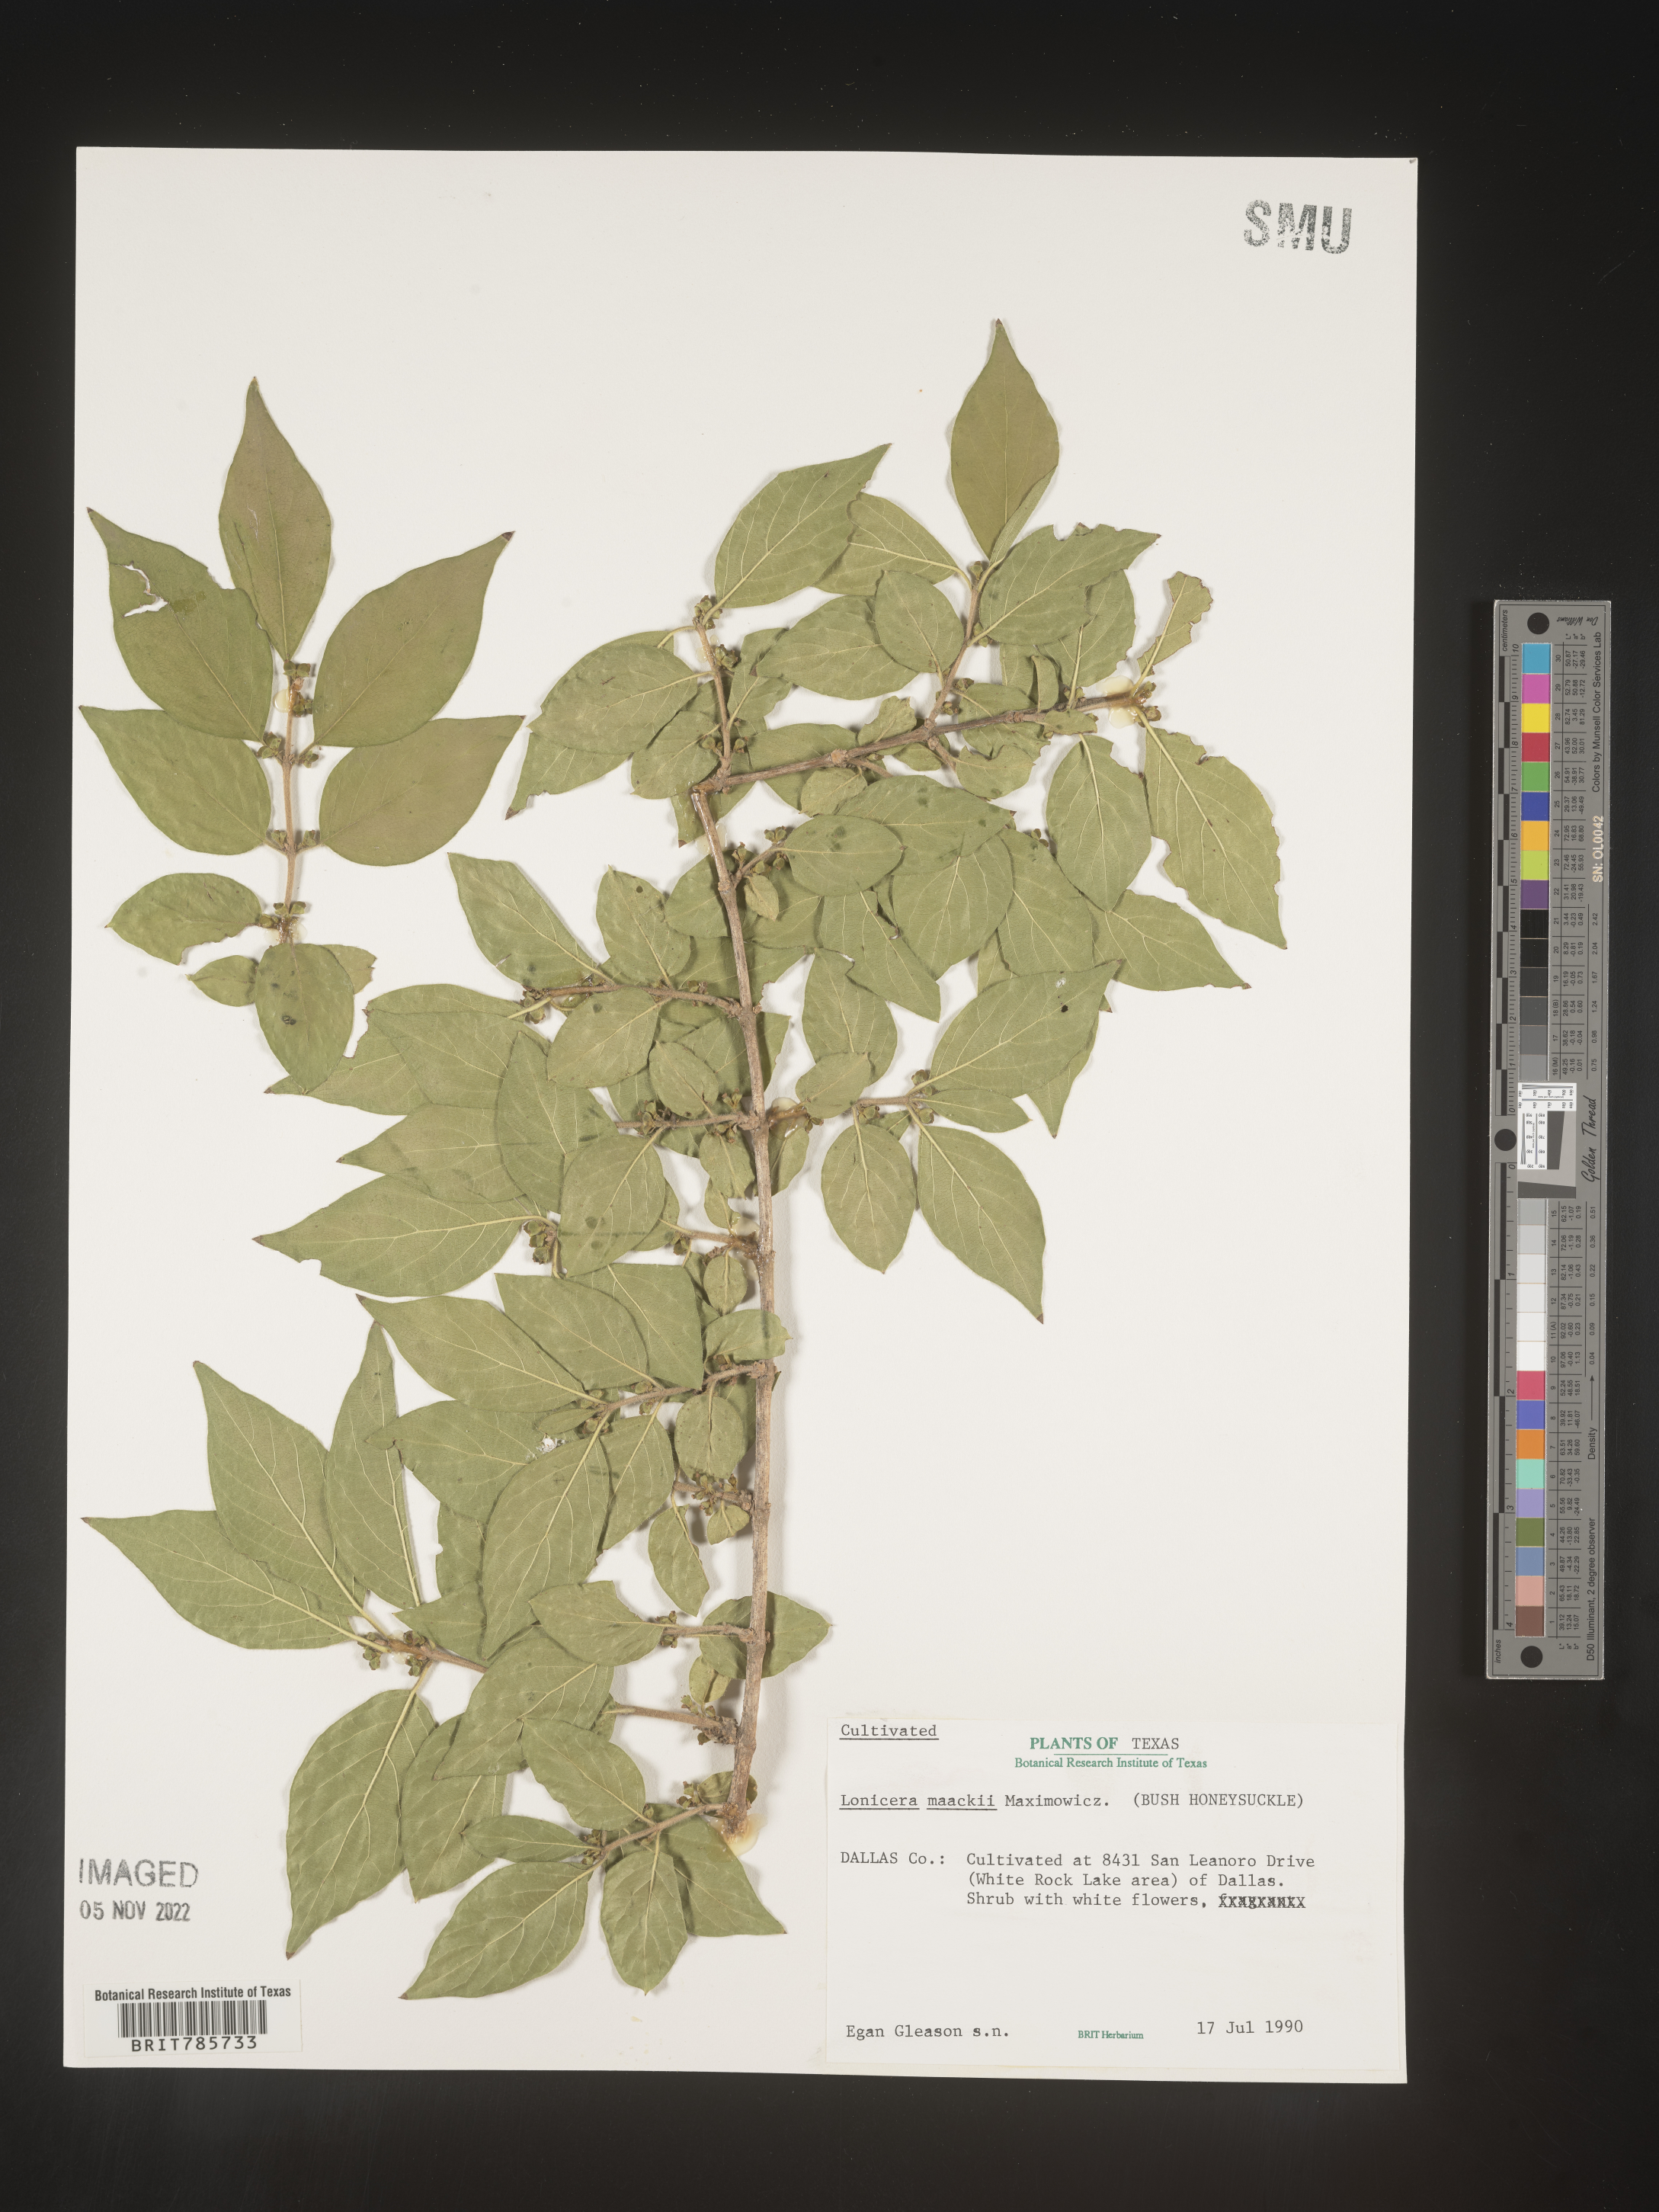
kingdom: Plantae
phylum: Tracheophyta
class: Magnoliopsida
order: Dipsacales
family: Caprifoliaceae
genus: Lonicera
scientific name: Lonicera
